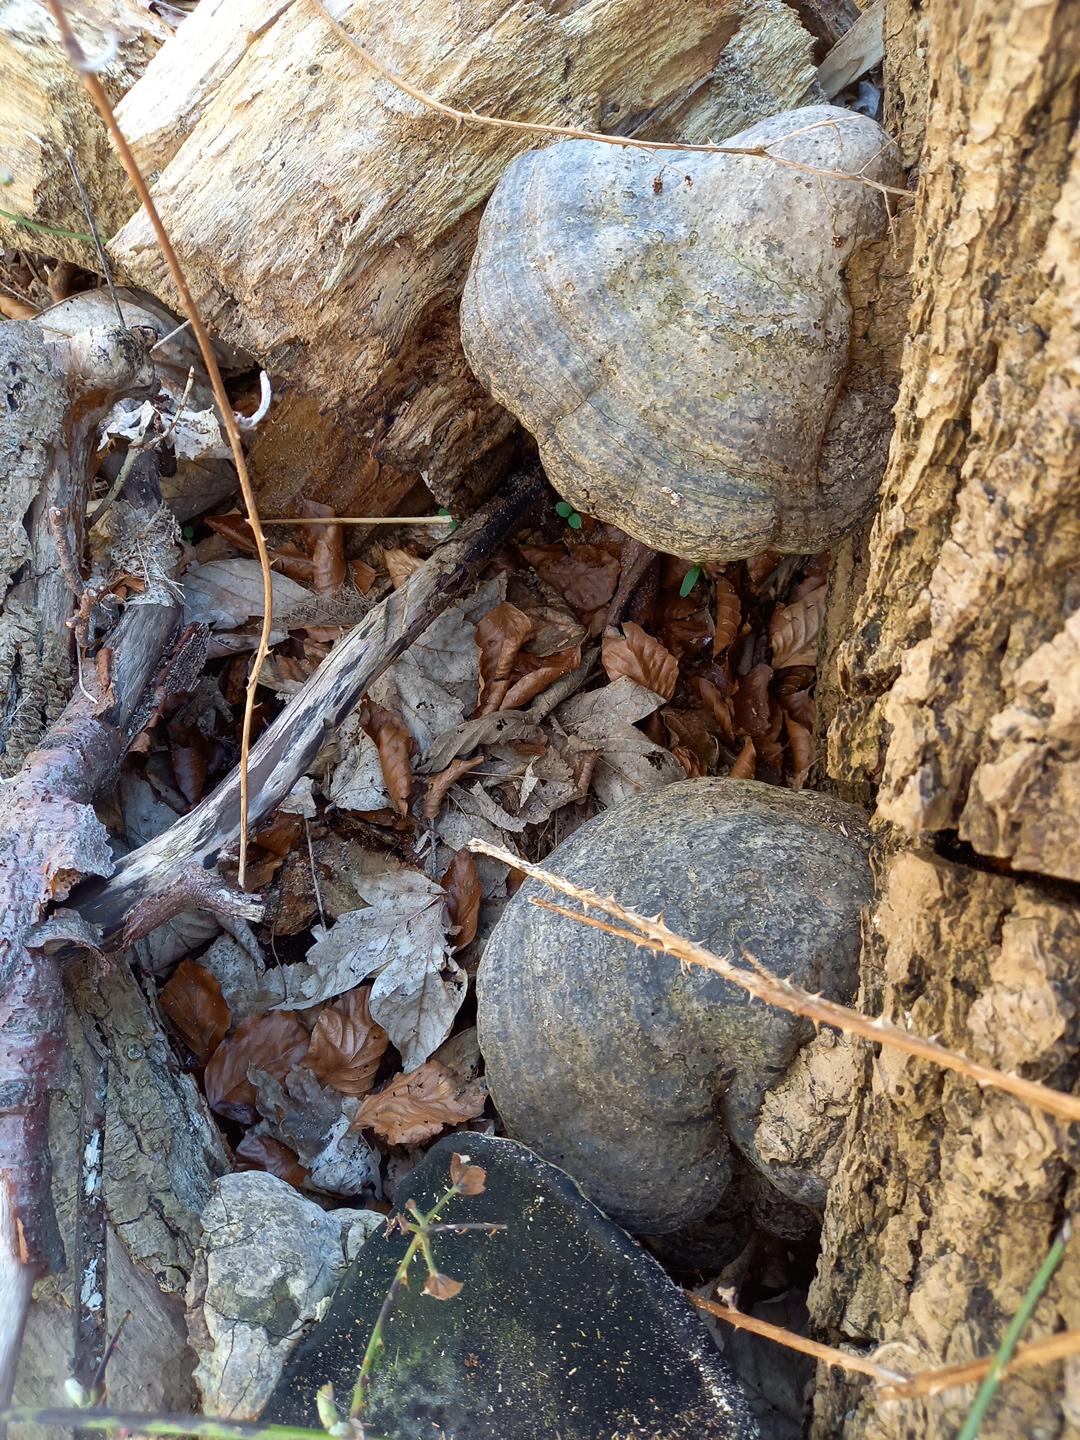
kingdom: Fungi
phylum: Basidiomycota
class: Agaricomycetes
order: Polyporales
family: Polyporaceae
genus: Fomes
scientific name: Fomes fomentarius
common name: tøndersvamp
